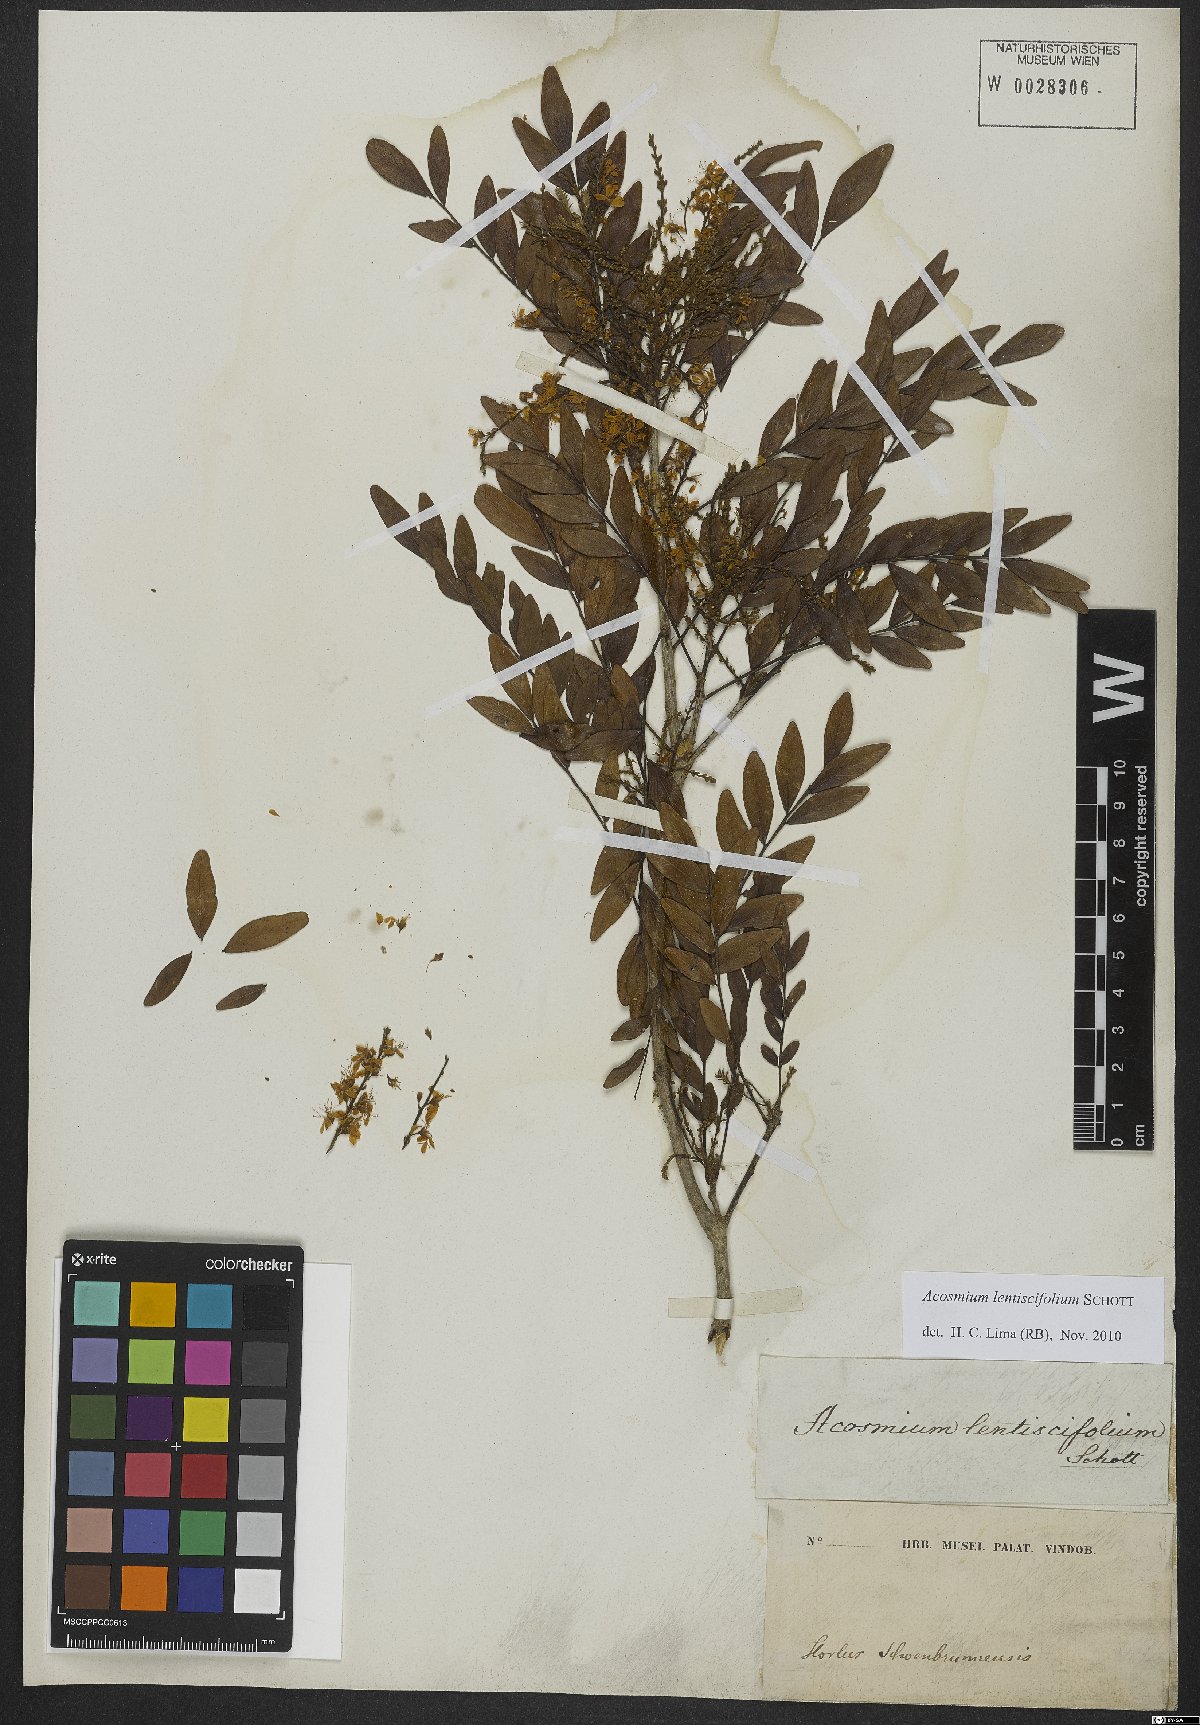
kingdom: Plantae
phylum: Tracheophyta
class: Magnoliopsida
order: Fabales
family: Fabaceae
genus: Acosmium
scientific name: Acosmium lentiscifolium
